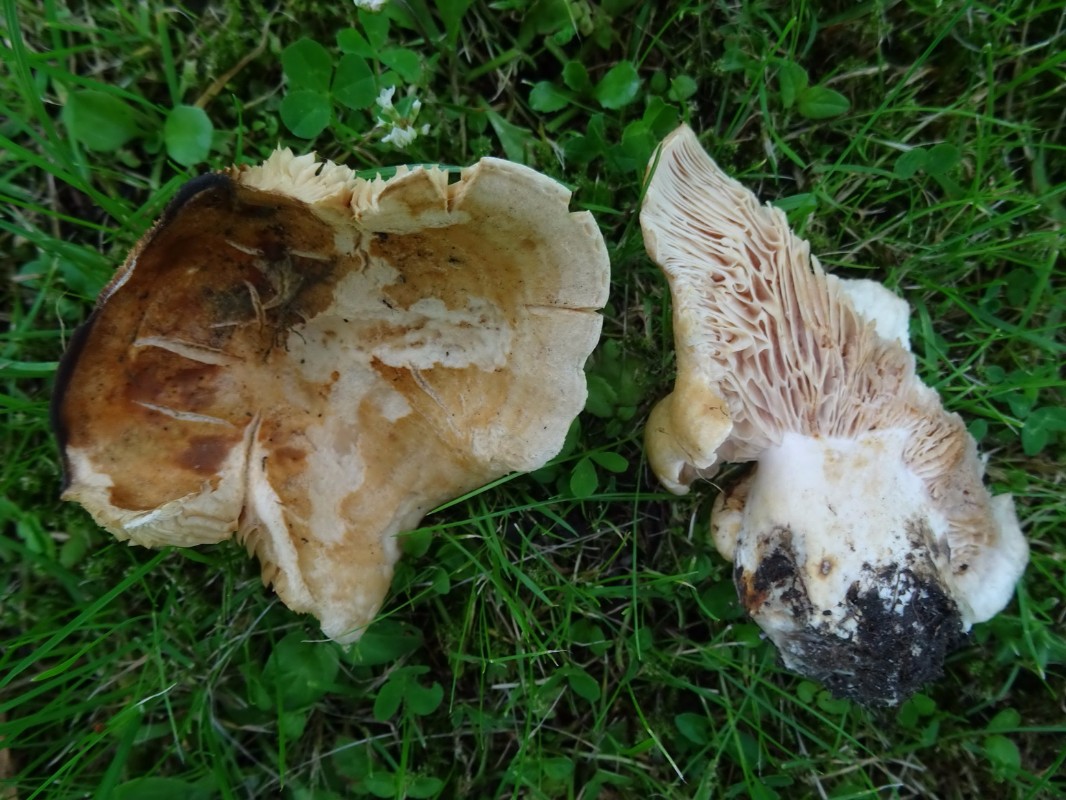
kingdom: Fungi
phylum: Basidiomycota
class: Agaricomycetes
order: Russulales
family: Russulaceae
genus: Lactarius
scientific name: Lactarius acerrimus
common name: brændende mælkehat
